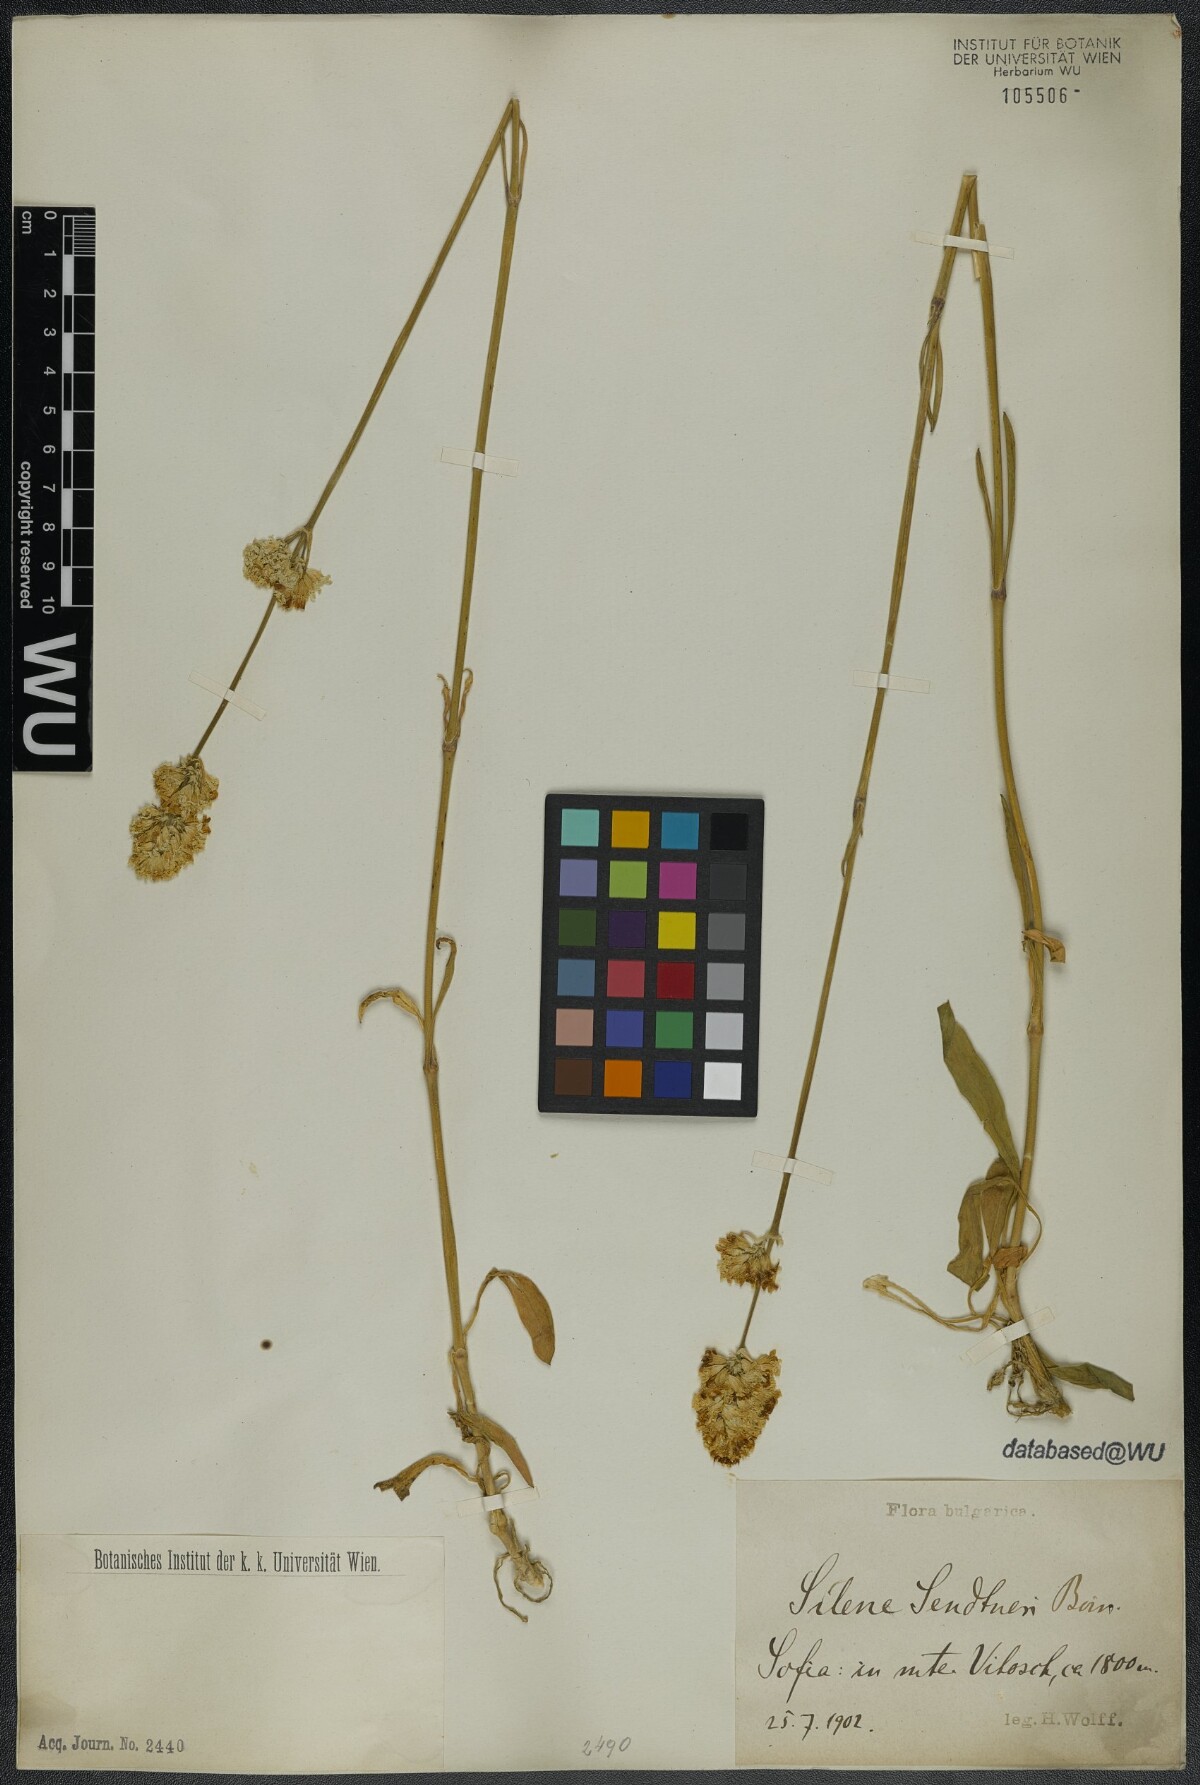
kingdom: Plantae
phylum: Tracheophyta
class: Magnoliopsida
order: Caryophyllales
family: Caryophyllaceae
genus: Silene
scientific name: Silene sendtneri
